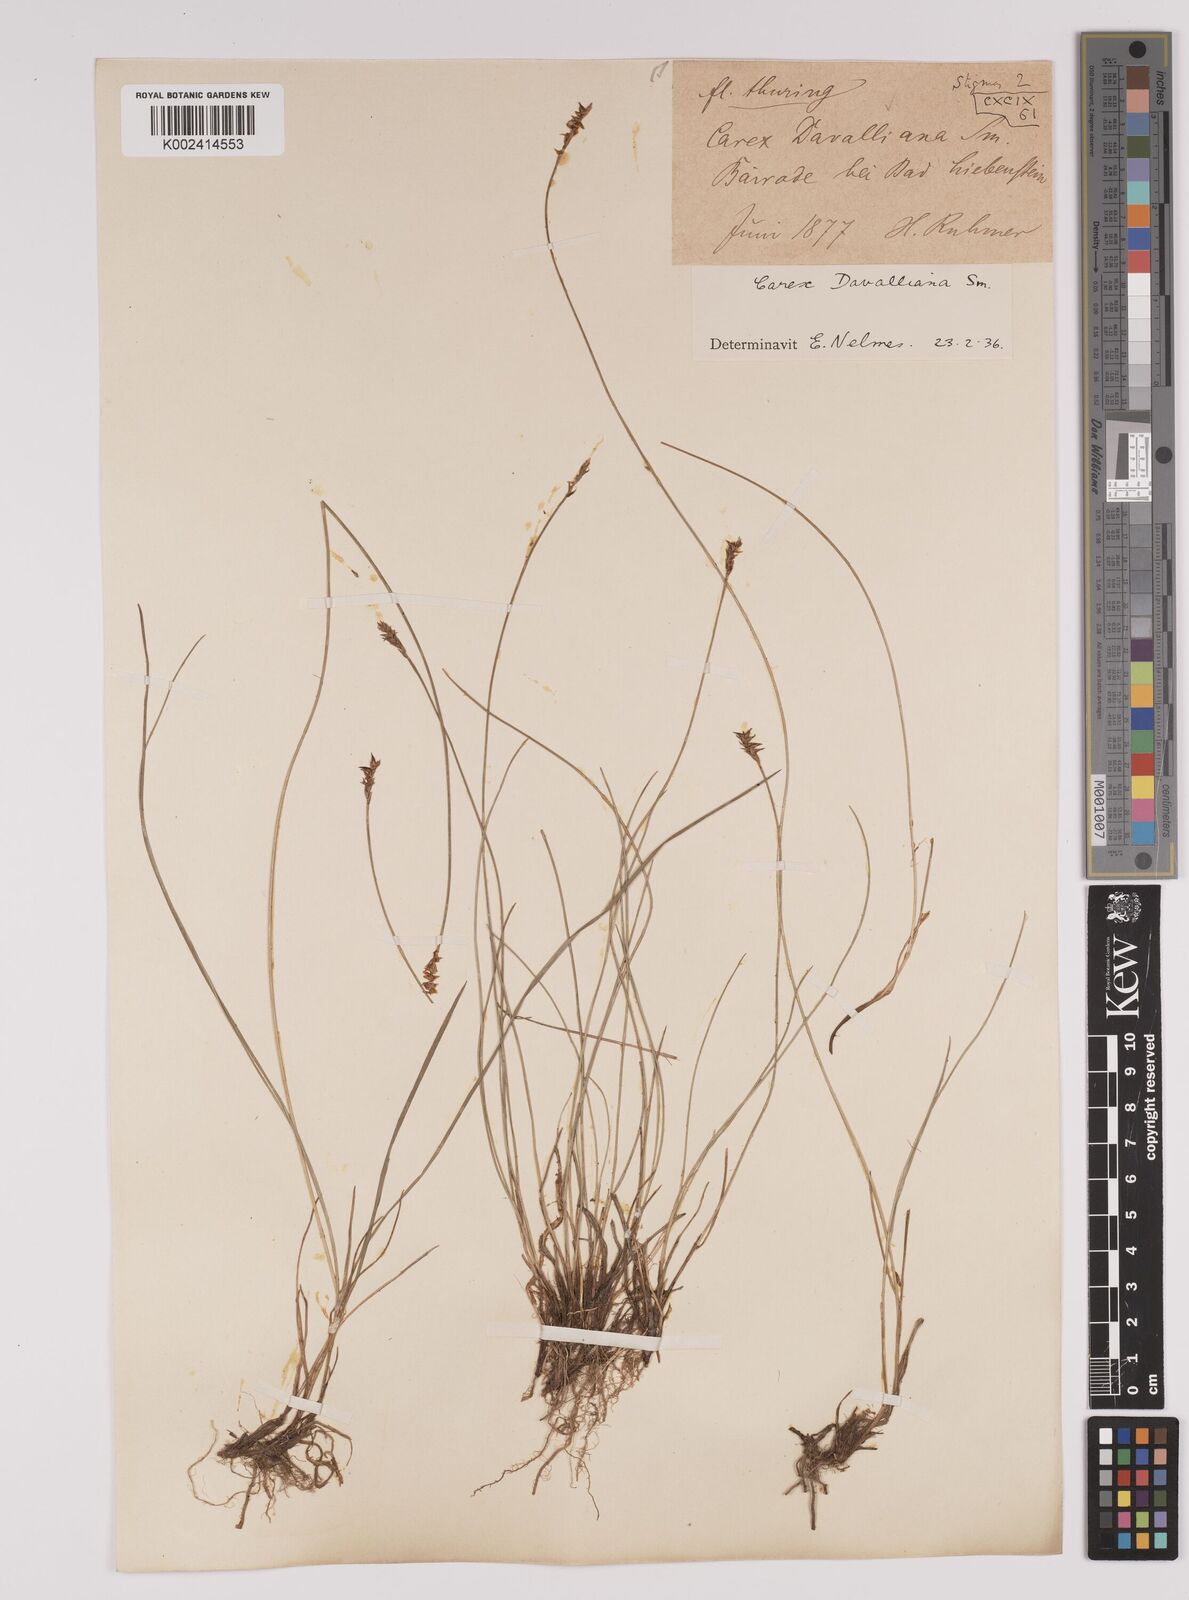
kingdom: Plantae
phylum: Tracheophyta
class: Liliopsida
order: Poales
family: Cyperaceae
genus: Carex
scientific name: Carex davalliana
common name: Davall's sedge
